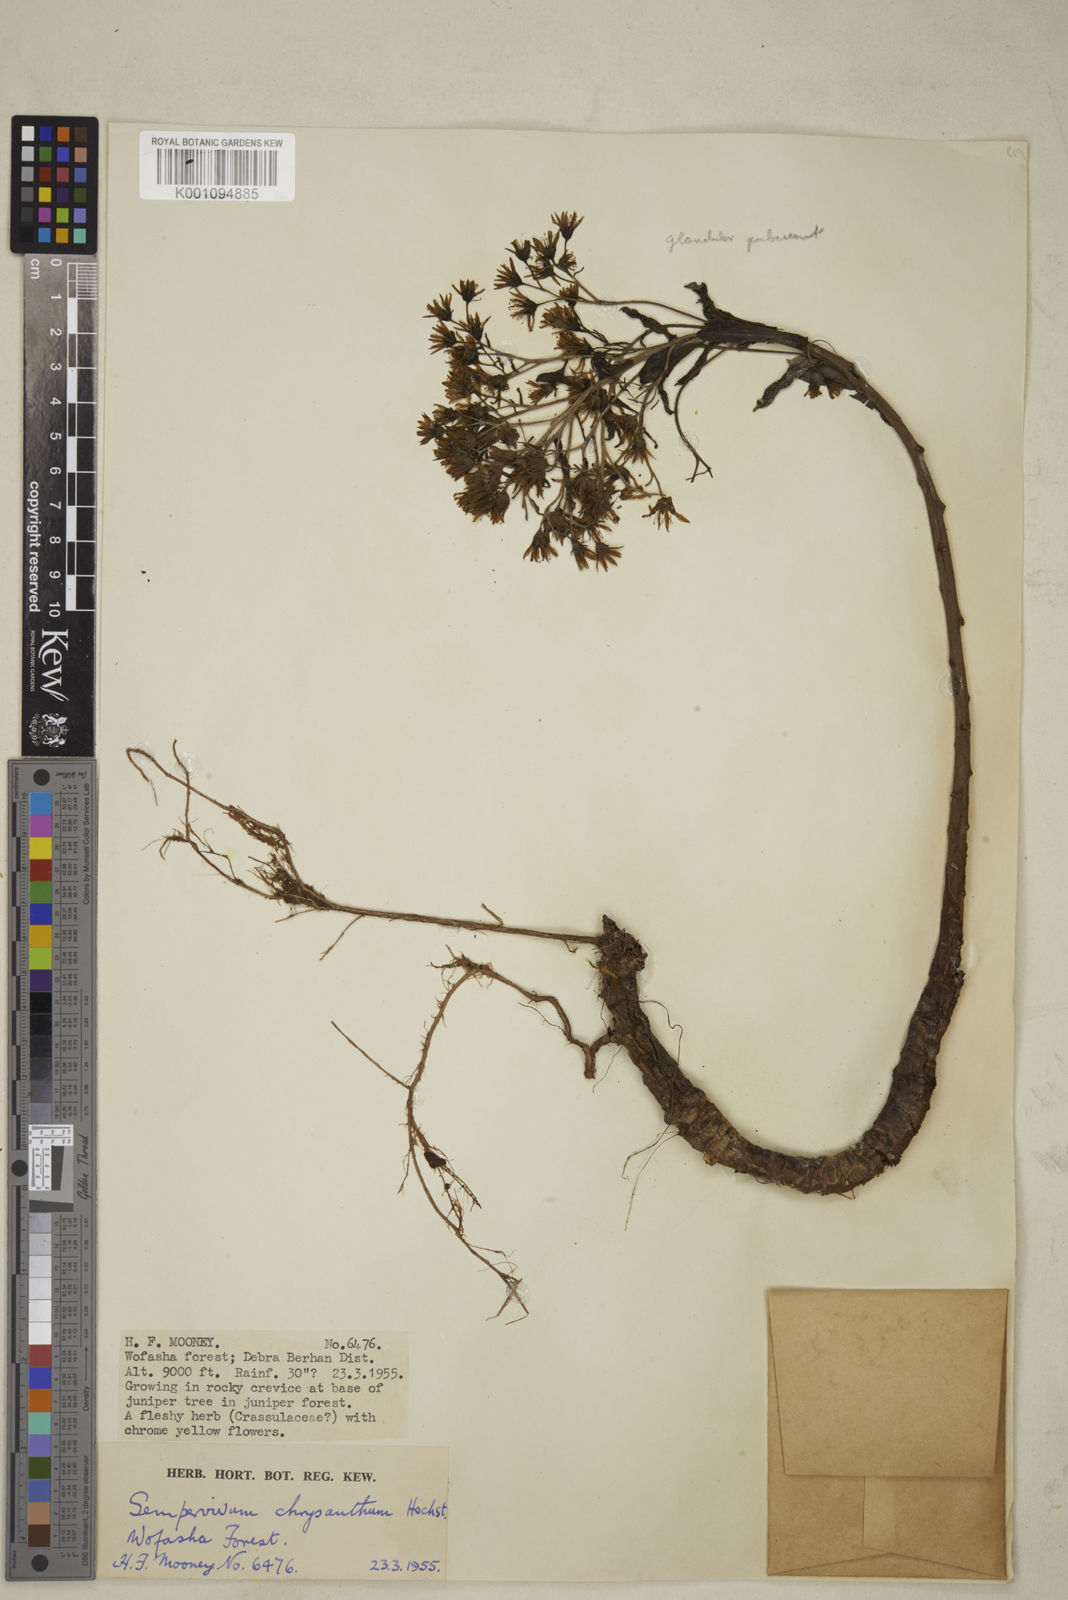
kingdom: Plantae
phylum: Tracheophyta
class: Magnoliopsida
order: Saxifragales
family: Crassulaceae
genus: Aeonium
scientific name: Aeonium leucoblepharum
